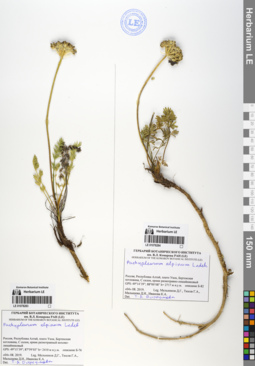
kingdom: Plantae
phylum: Tracheophyta
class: Magnoliopsida
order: Apiales
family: Apiaceae
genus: Pachypleurum
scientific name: Pachypleurum mutellinoides
